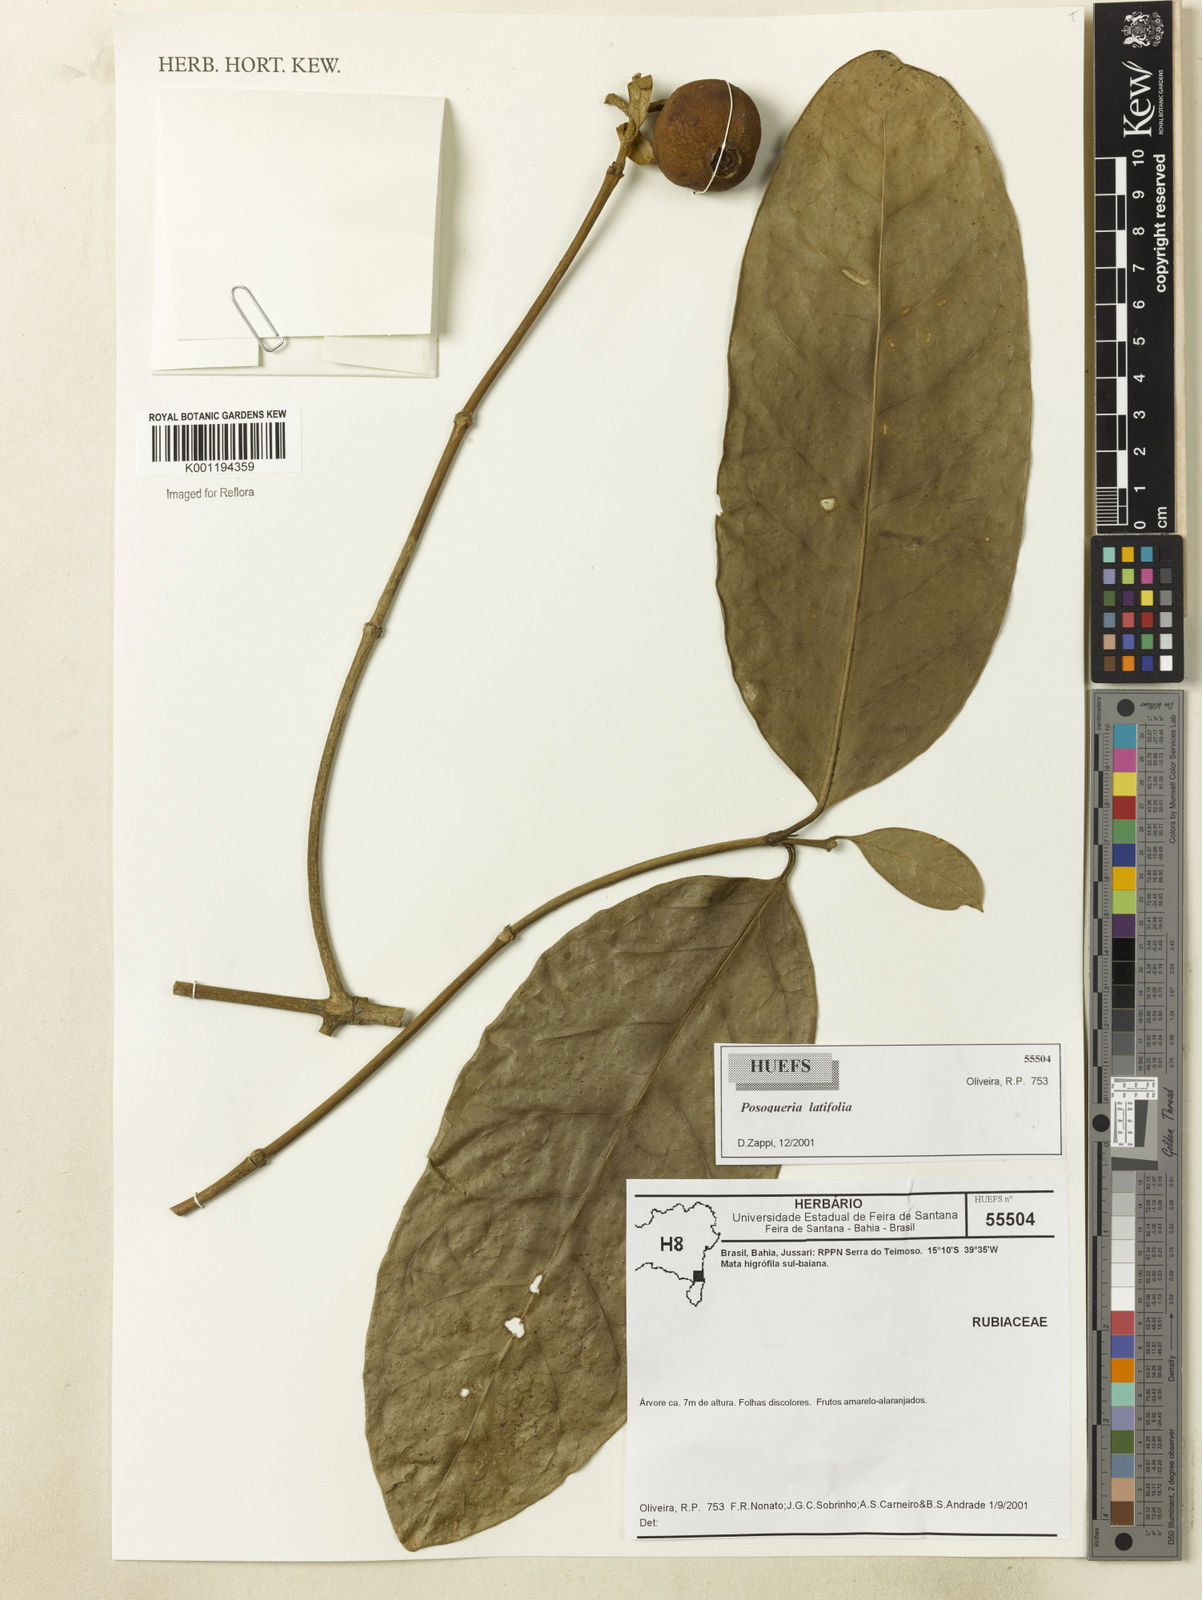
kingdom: Plantae
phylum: Tracheophyta
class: Magnoliopsida
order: Gentianales
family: Rubiaceae
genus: Posoqueria
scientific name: Posoqueria latifolia
